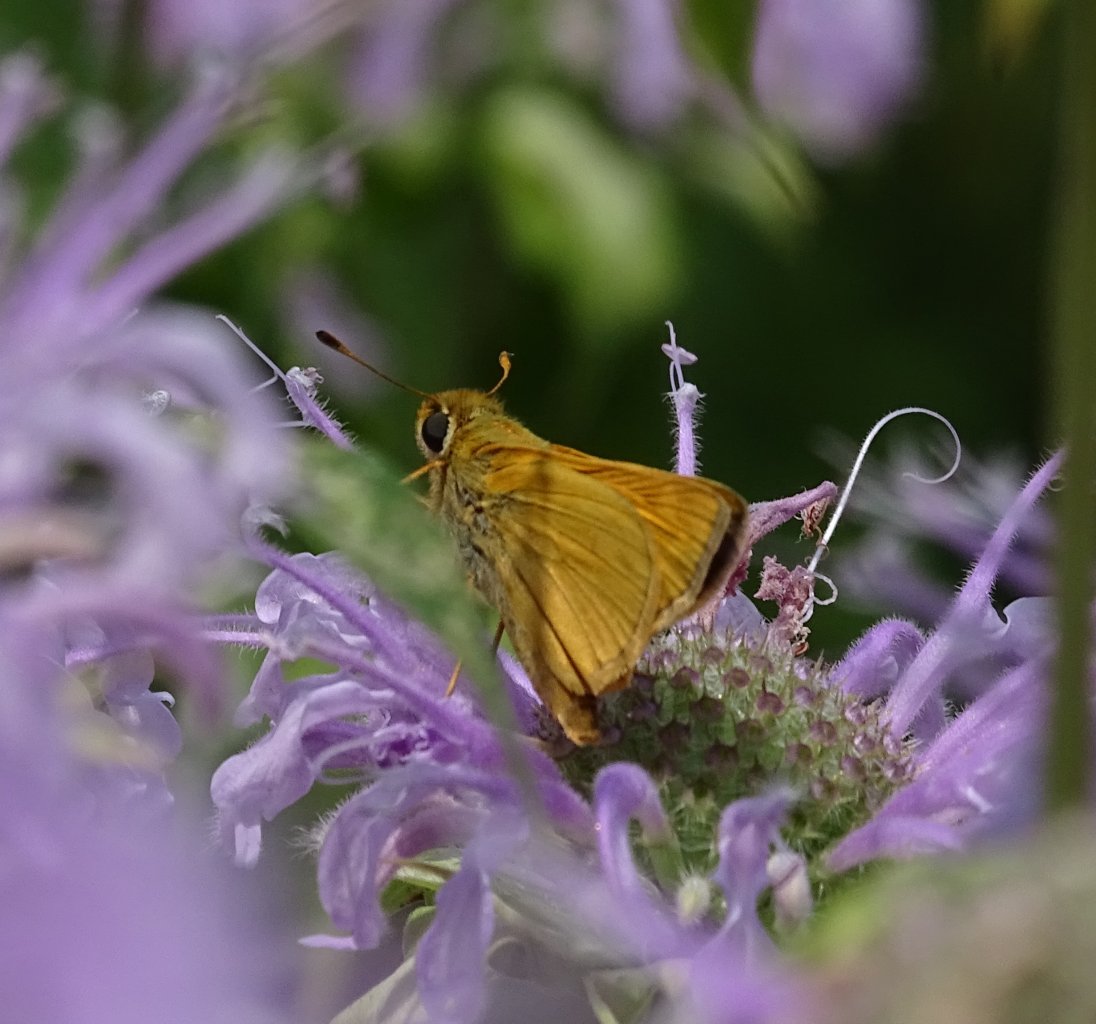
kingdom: Animalia
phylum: Arthropoda
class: Insecta
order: Lepidoptera
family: Hesperiidae
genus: Atalopedes
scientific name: Atalopedes campestris
